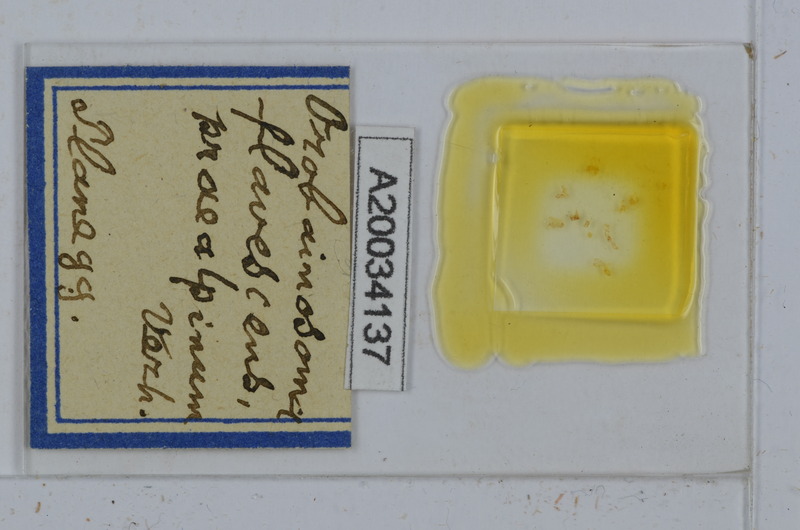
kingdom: Animalia
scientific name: Animalia
